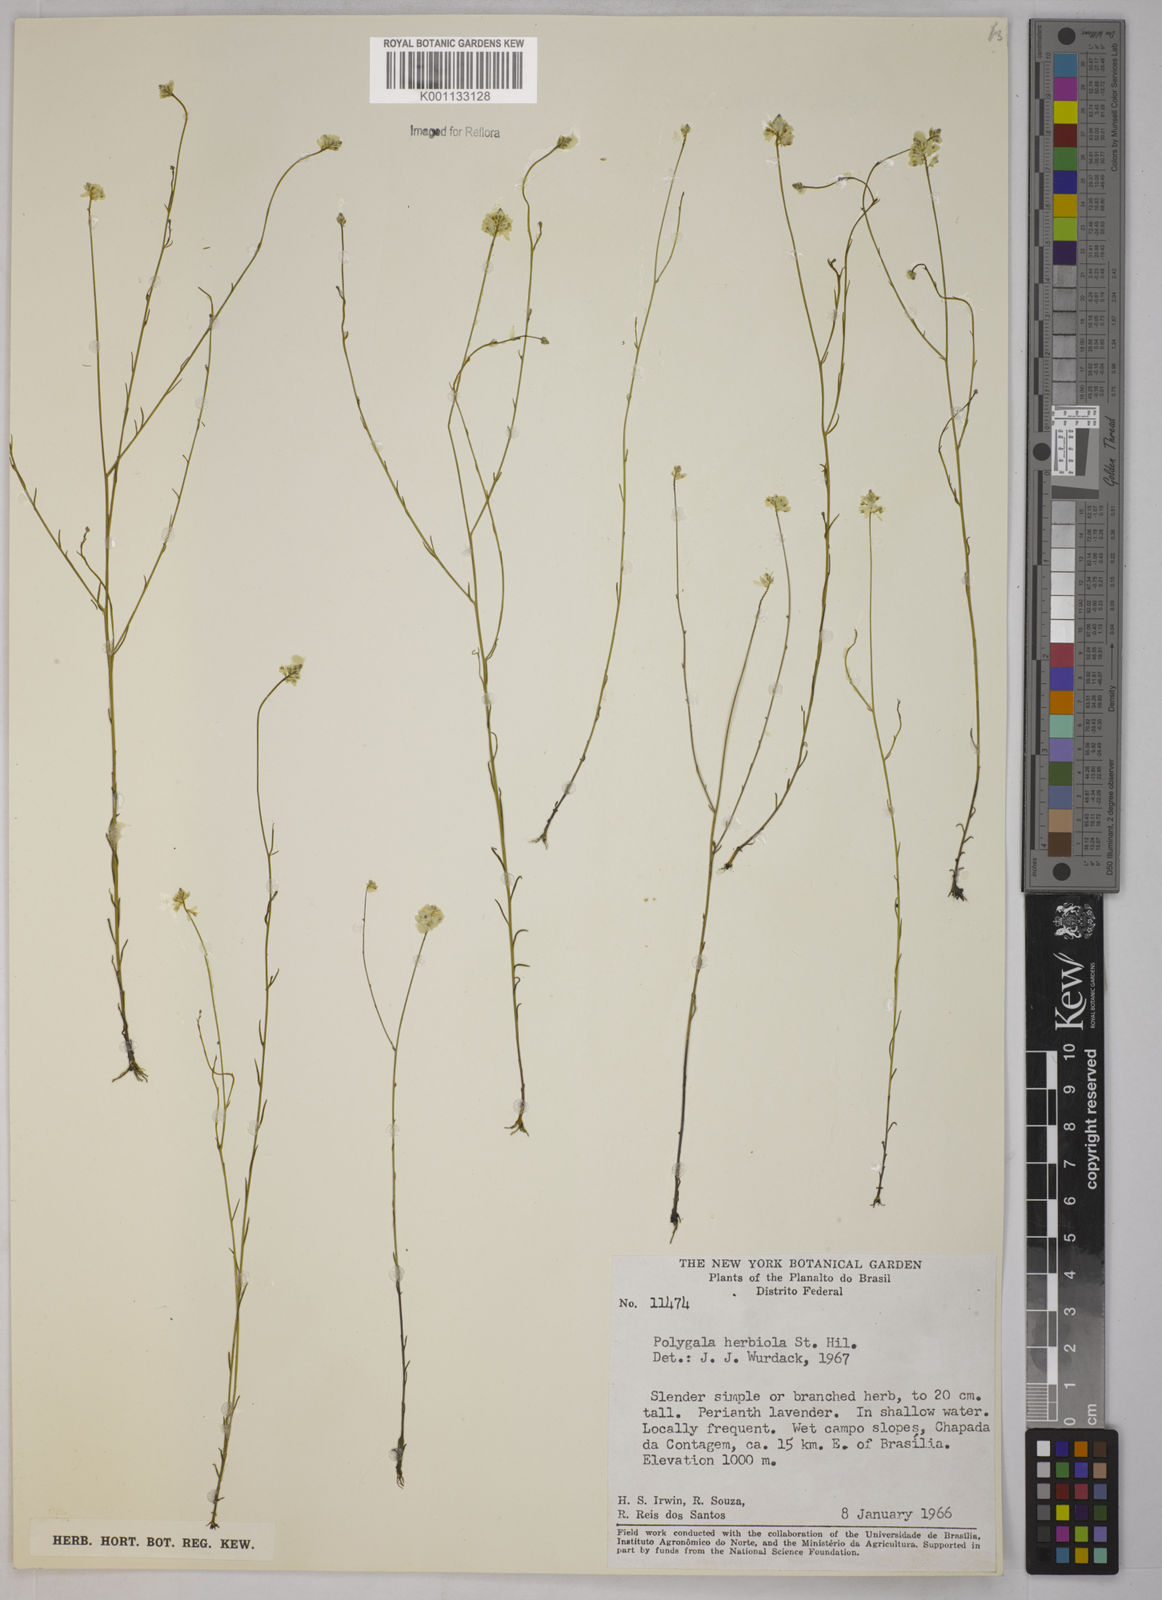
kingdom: Plantae
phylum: Tracheophyta
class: Magnoliopsida
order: Fabales
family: Polygalaceae
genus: Polygala
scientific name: Polygala herbiola
